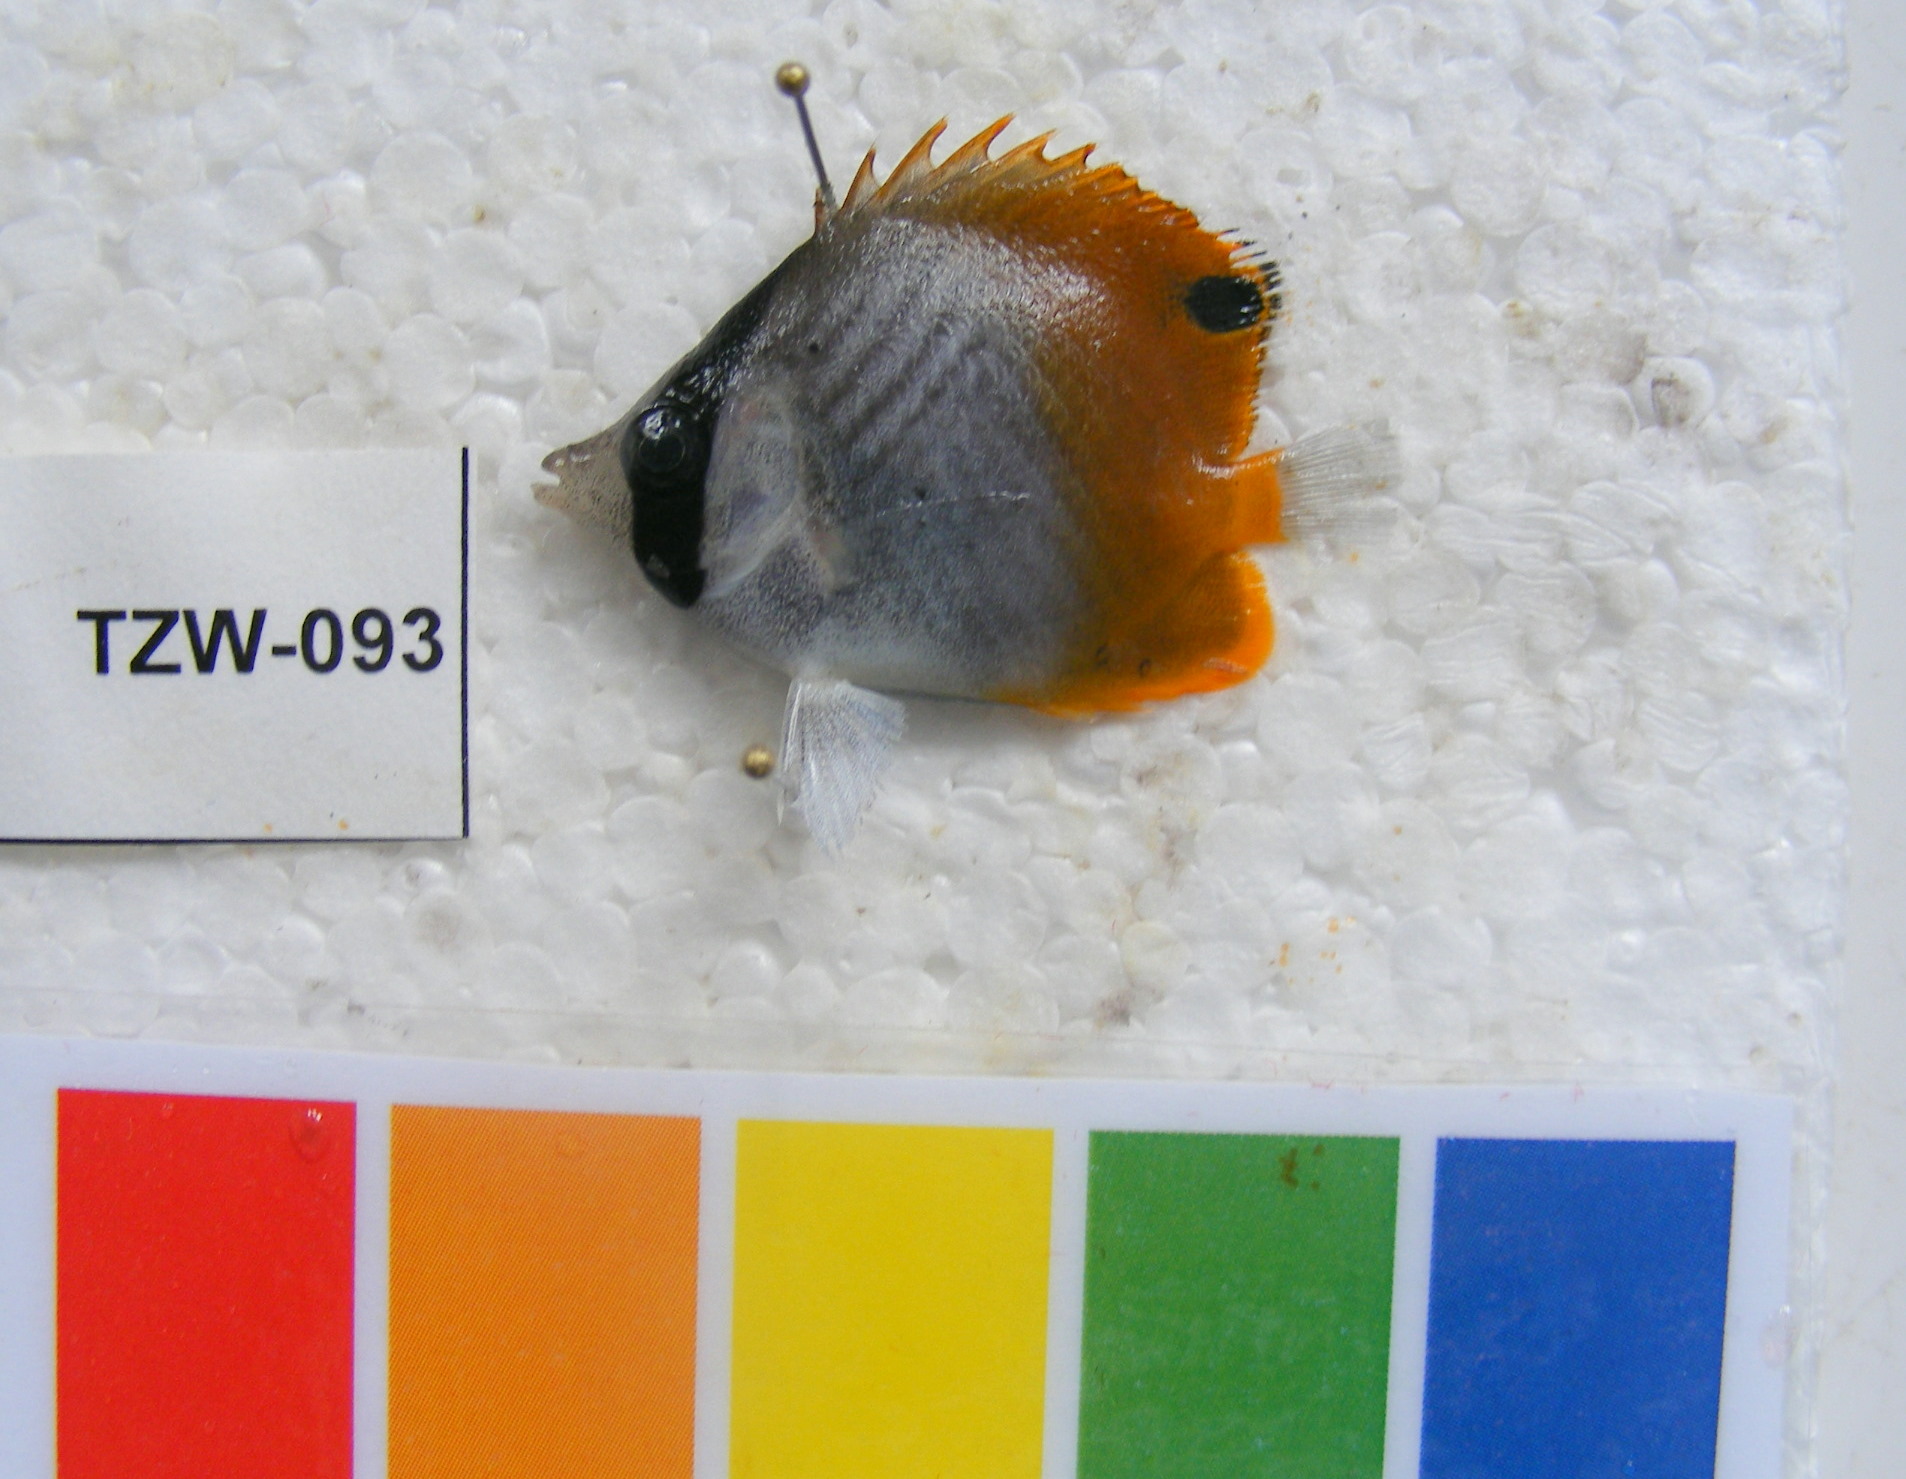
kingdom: Animalia
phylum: Chordata
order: Perciformes
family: Chaetodontidae
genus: Chaetodon
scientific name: Chaetodon auriga
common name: Threadfin butterflyfish
